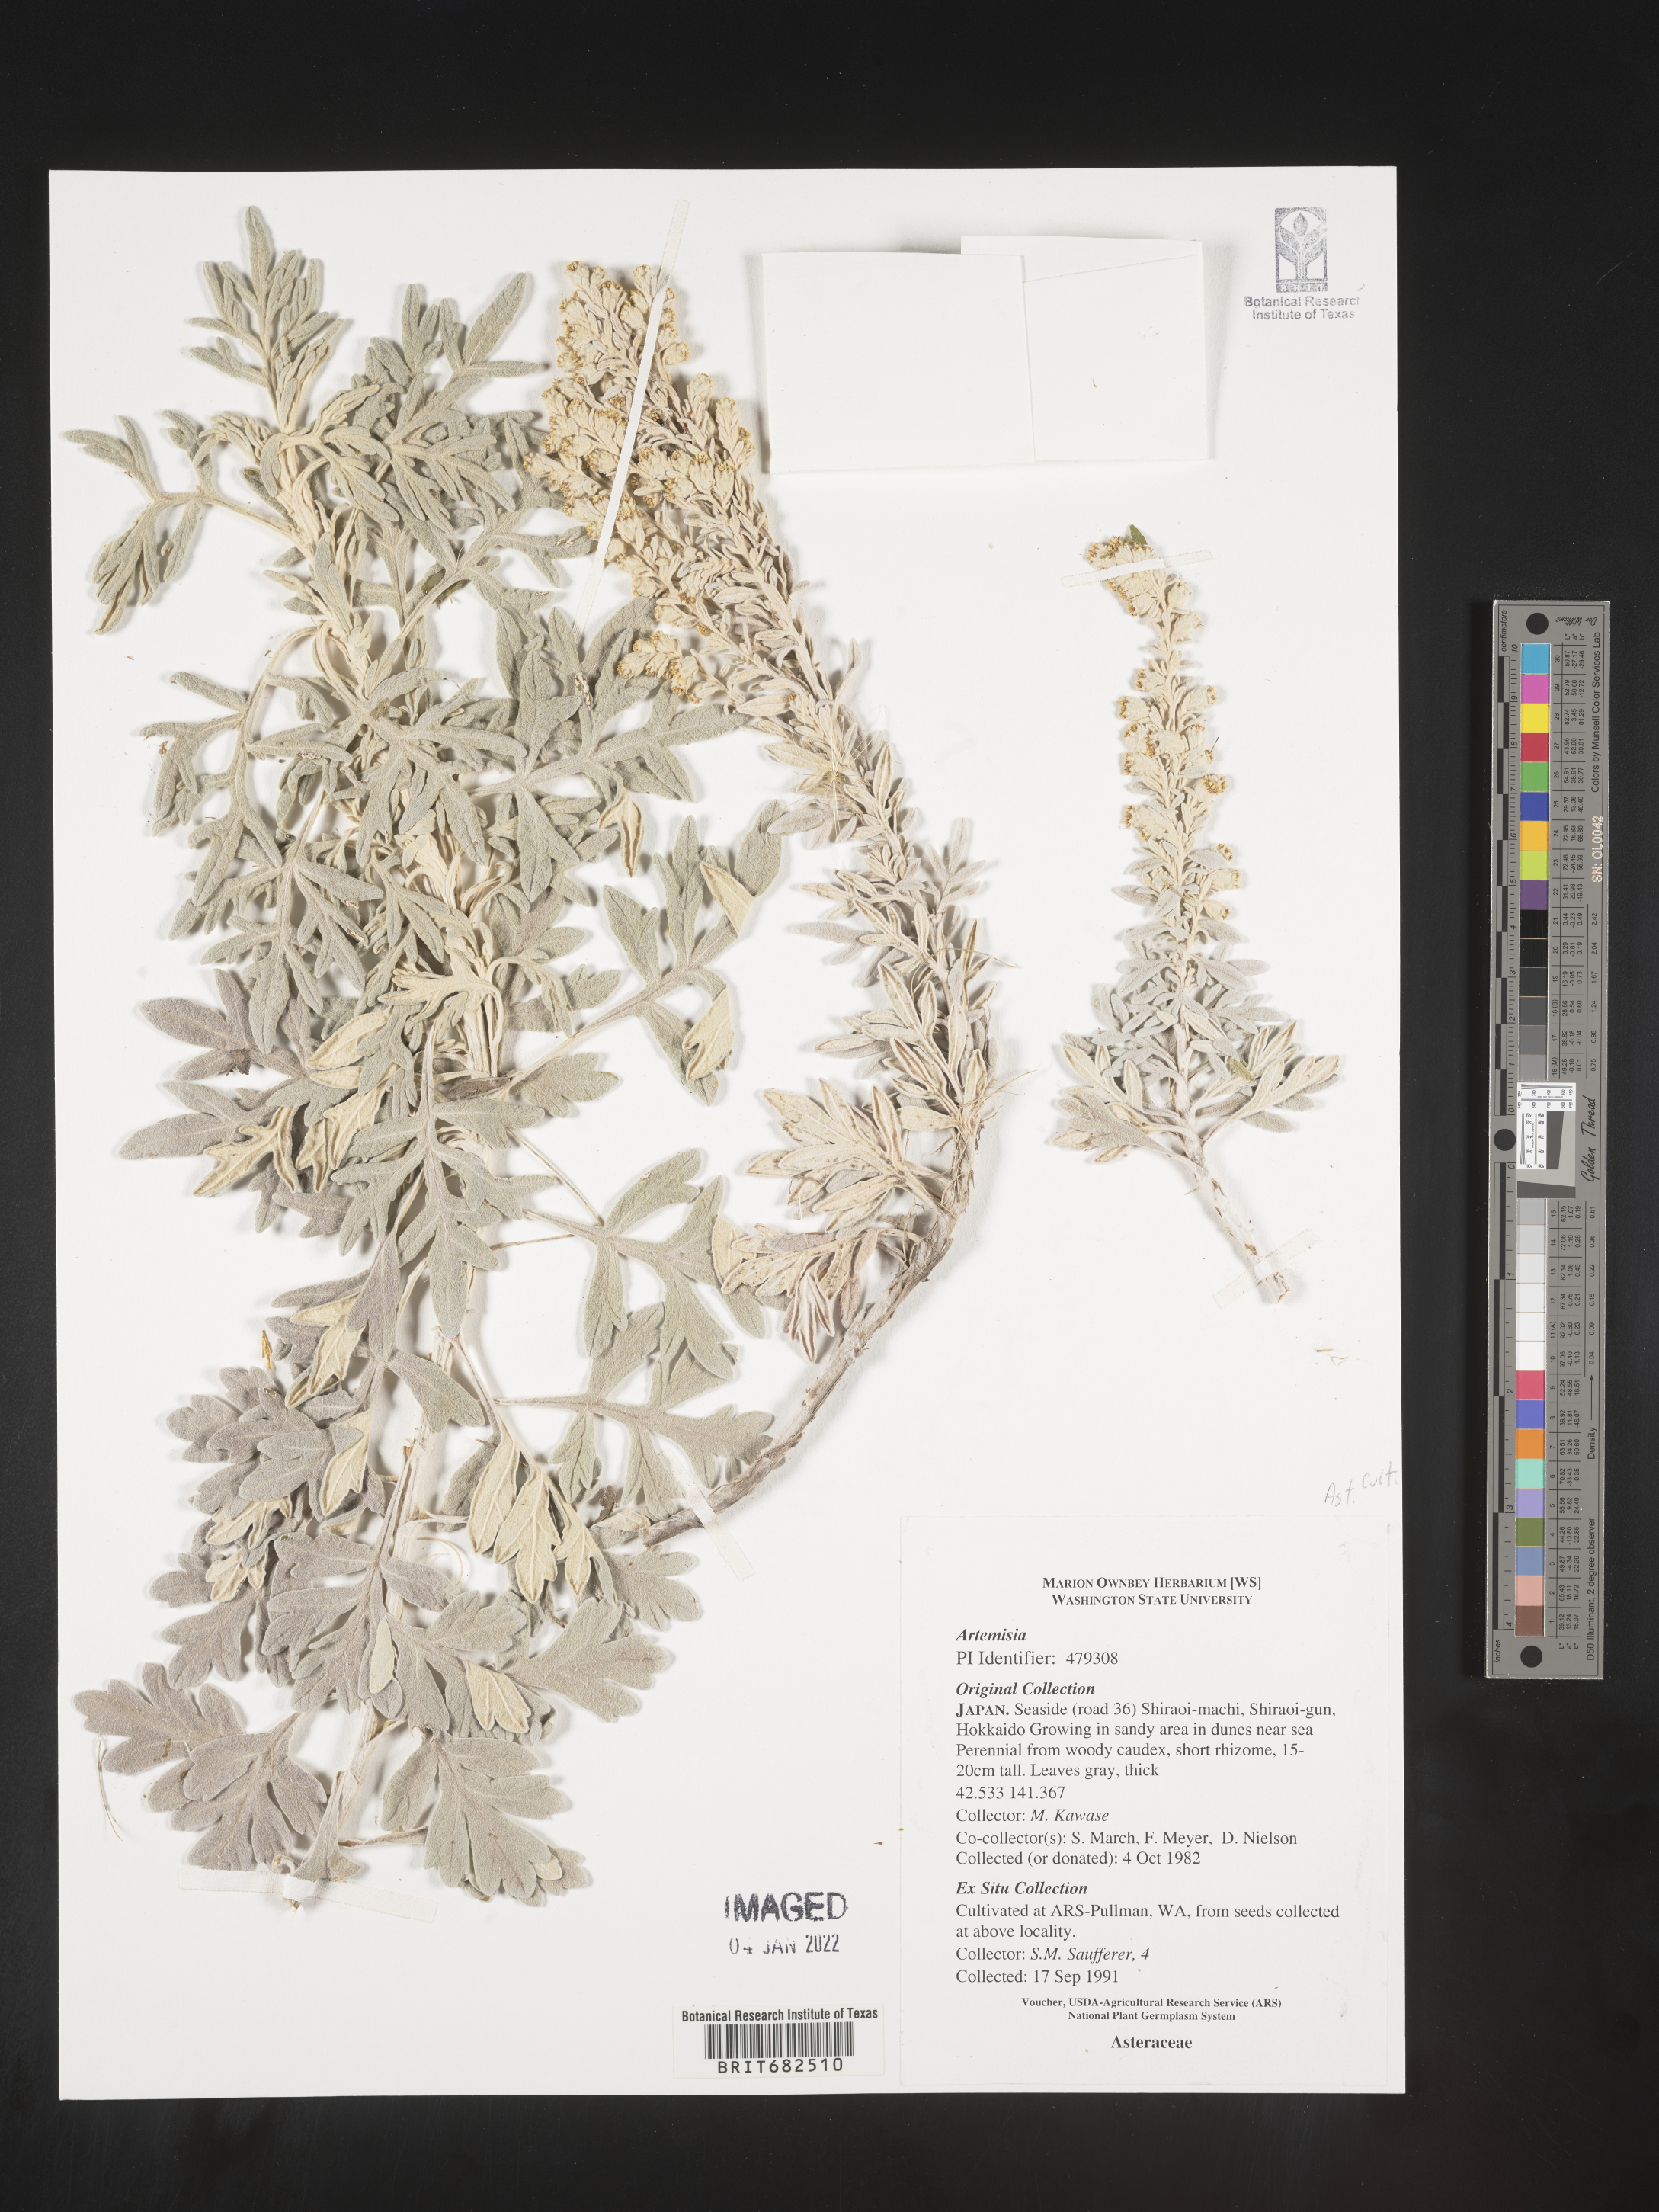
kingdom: Plantae
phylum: Tracheophyta
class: Magnoliopsida
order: Asterales
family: Asteraceae
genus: Artemisia
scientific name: Artemisia
